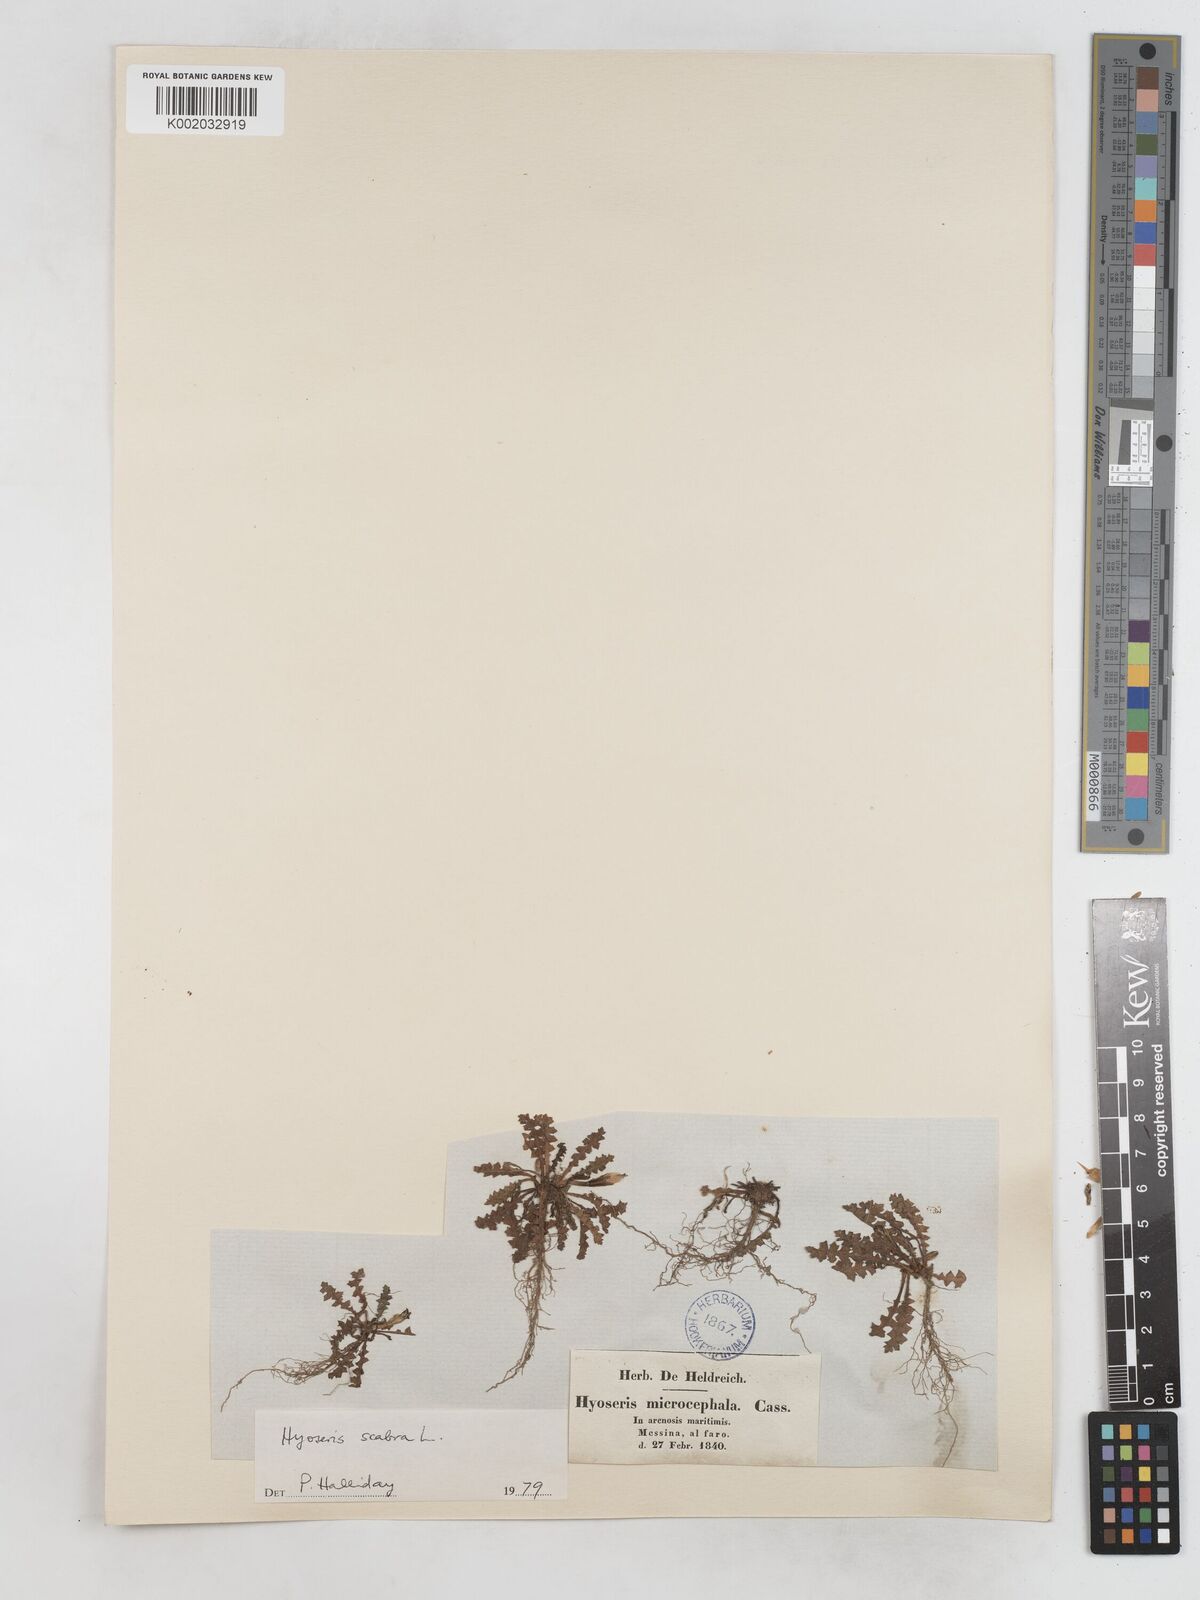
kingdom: Plantae
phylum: Tracheophyta
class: Magnoliopsida
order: Asterales
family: Asteraceae
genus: Hyoseris
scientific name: Hyoseris scabra
